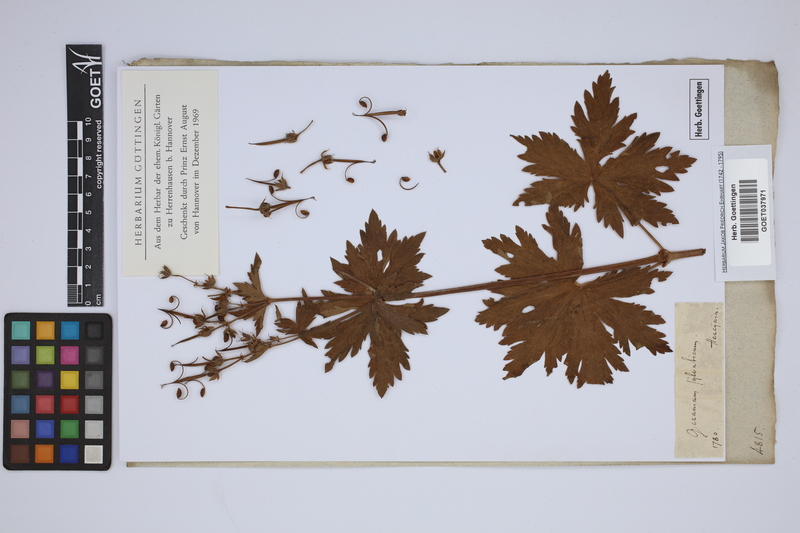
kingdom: Plantae
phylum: Tracheophyta
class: Magnoliopsida
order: Geraniales
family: Geraniaceae
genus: Geranium
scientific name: Geranium sylvaticum
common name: Wood crane's-bill
